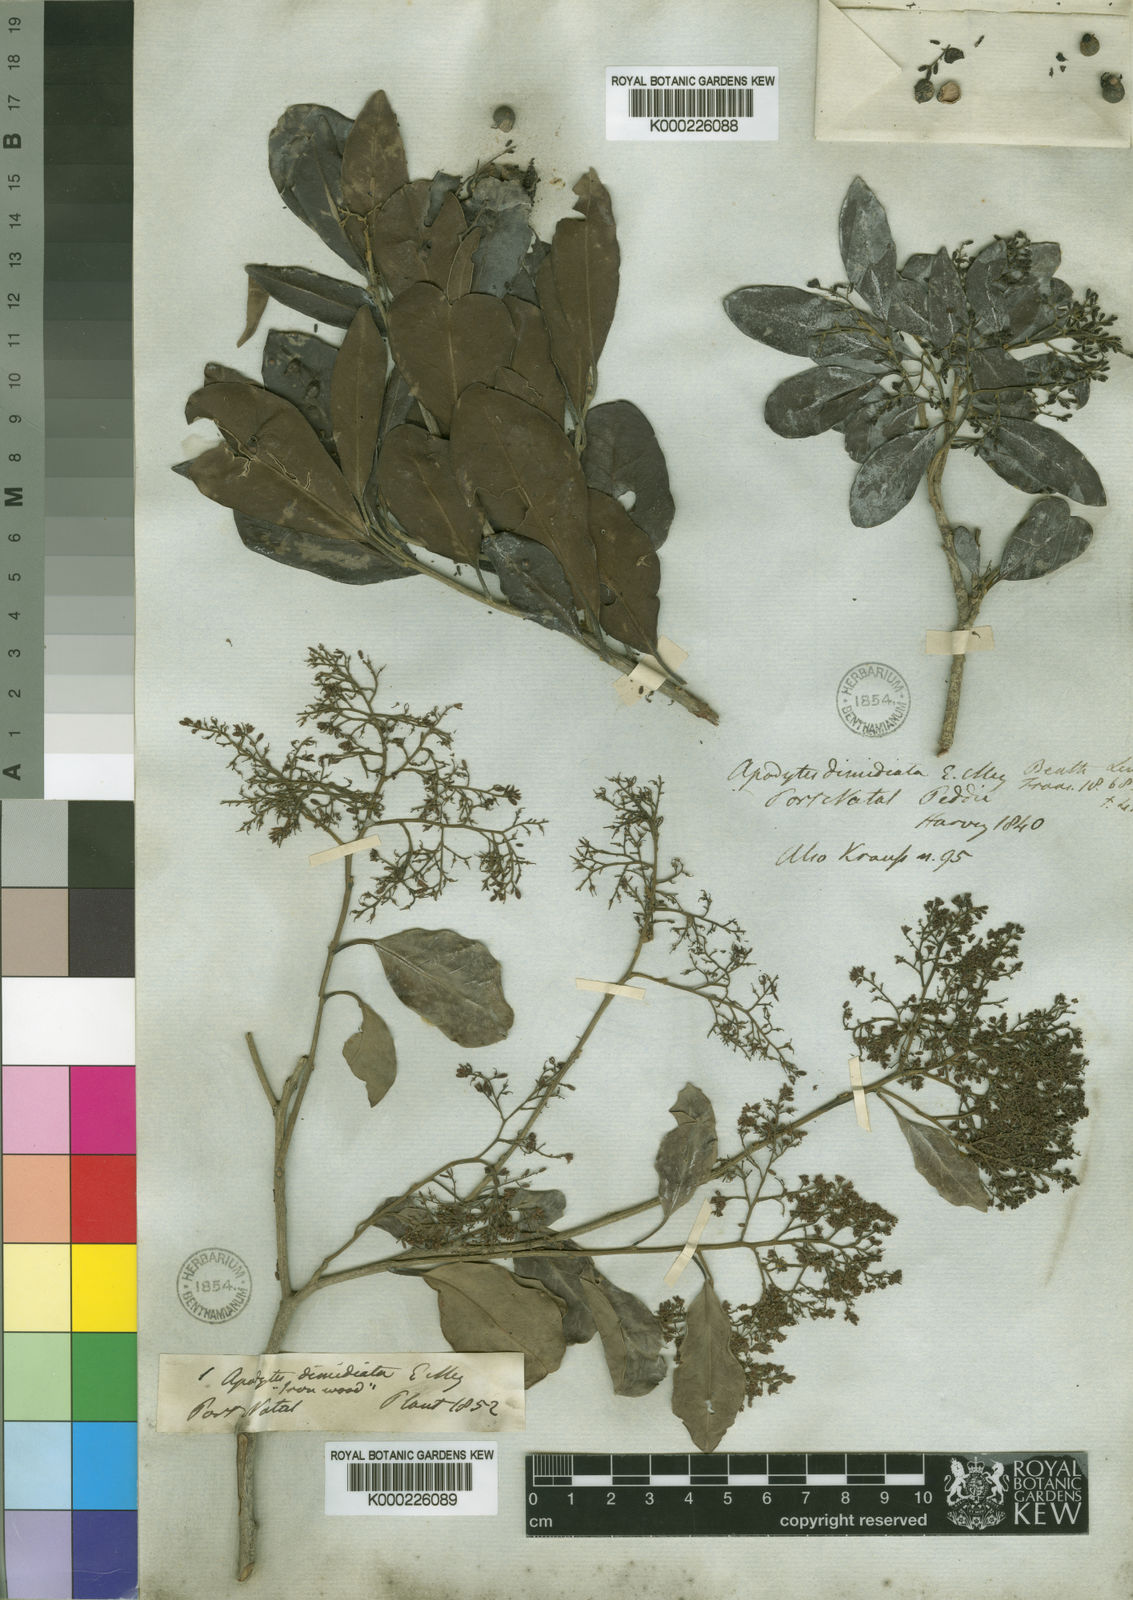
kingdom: Plantae
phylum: Tracheophyta
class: Magnoliopsida
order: Metteniusales
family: Metteniusaceae
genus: Apodytes
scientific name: Apodytes dimidiata
